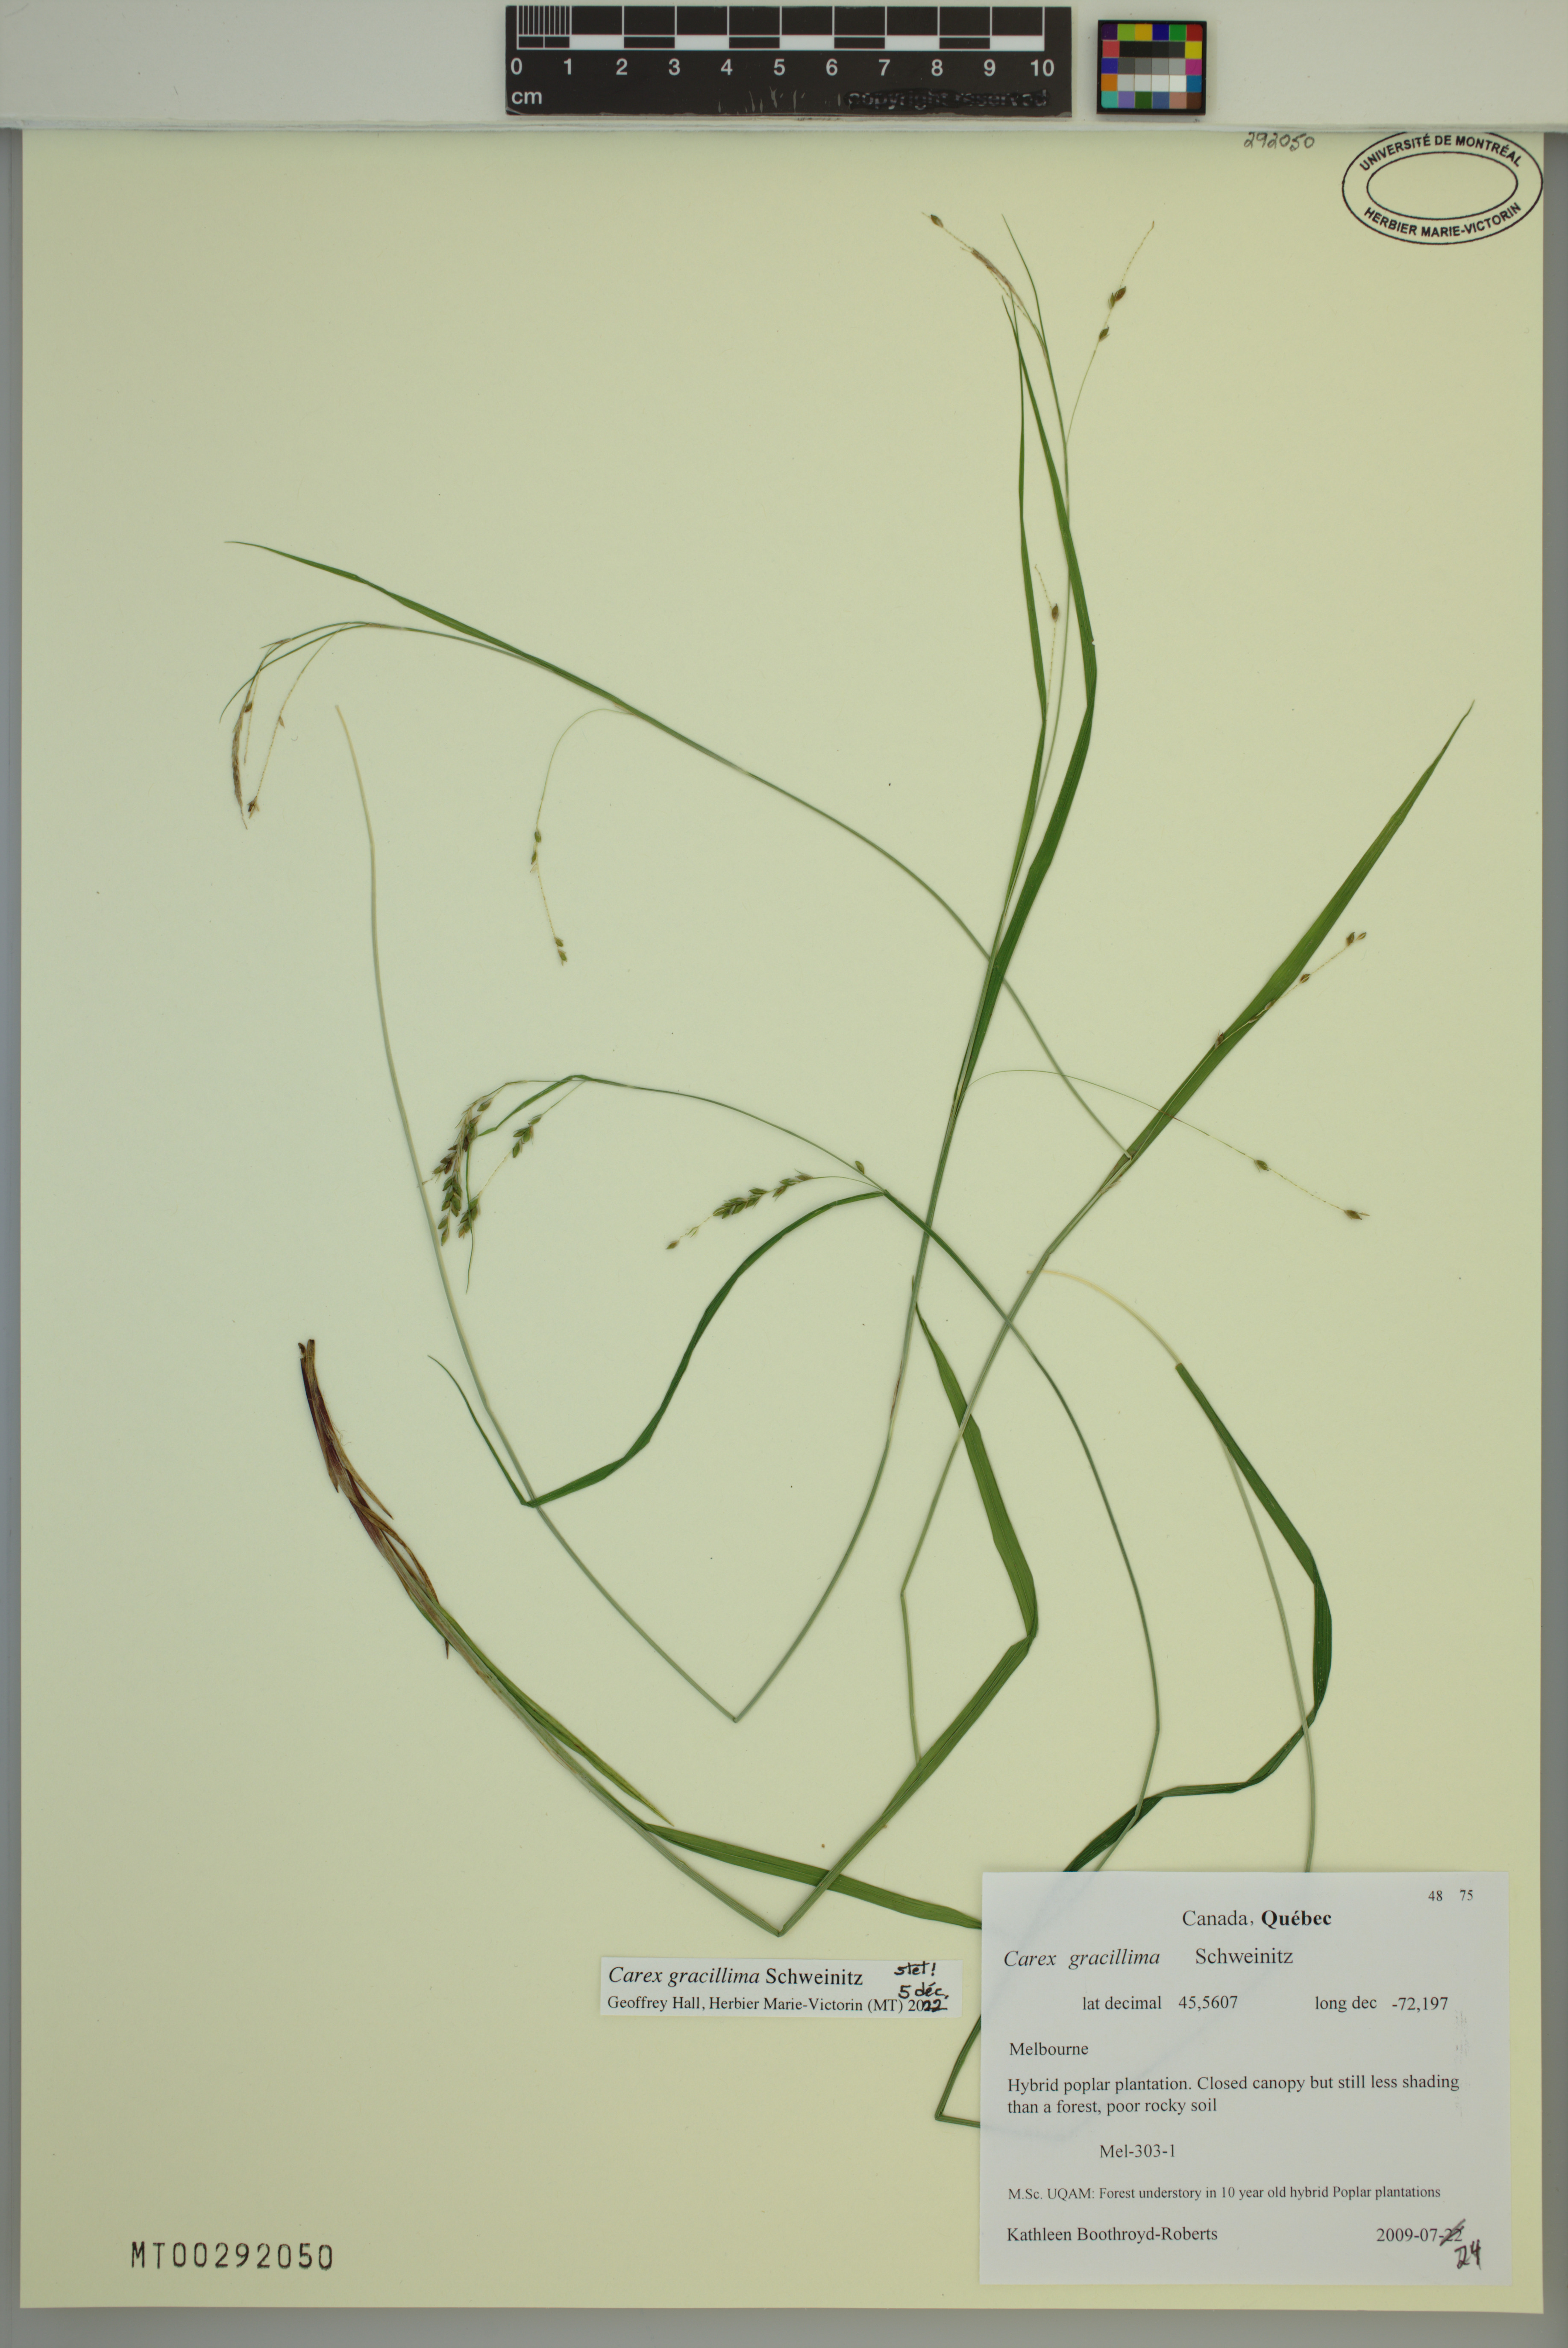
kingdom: Plantae
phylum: Tracheophyta
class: Liliopsida
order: Poales
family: Cyperaceae
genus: Carex
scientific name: Carex gracillima
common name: Graceful sedge
